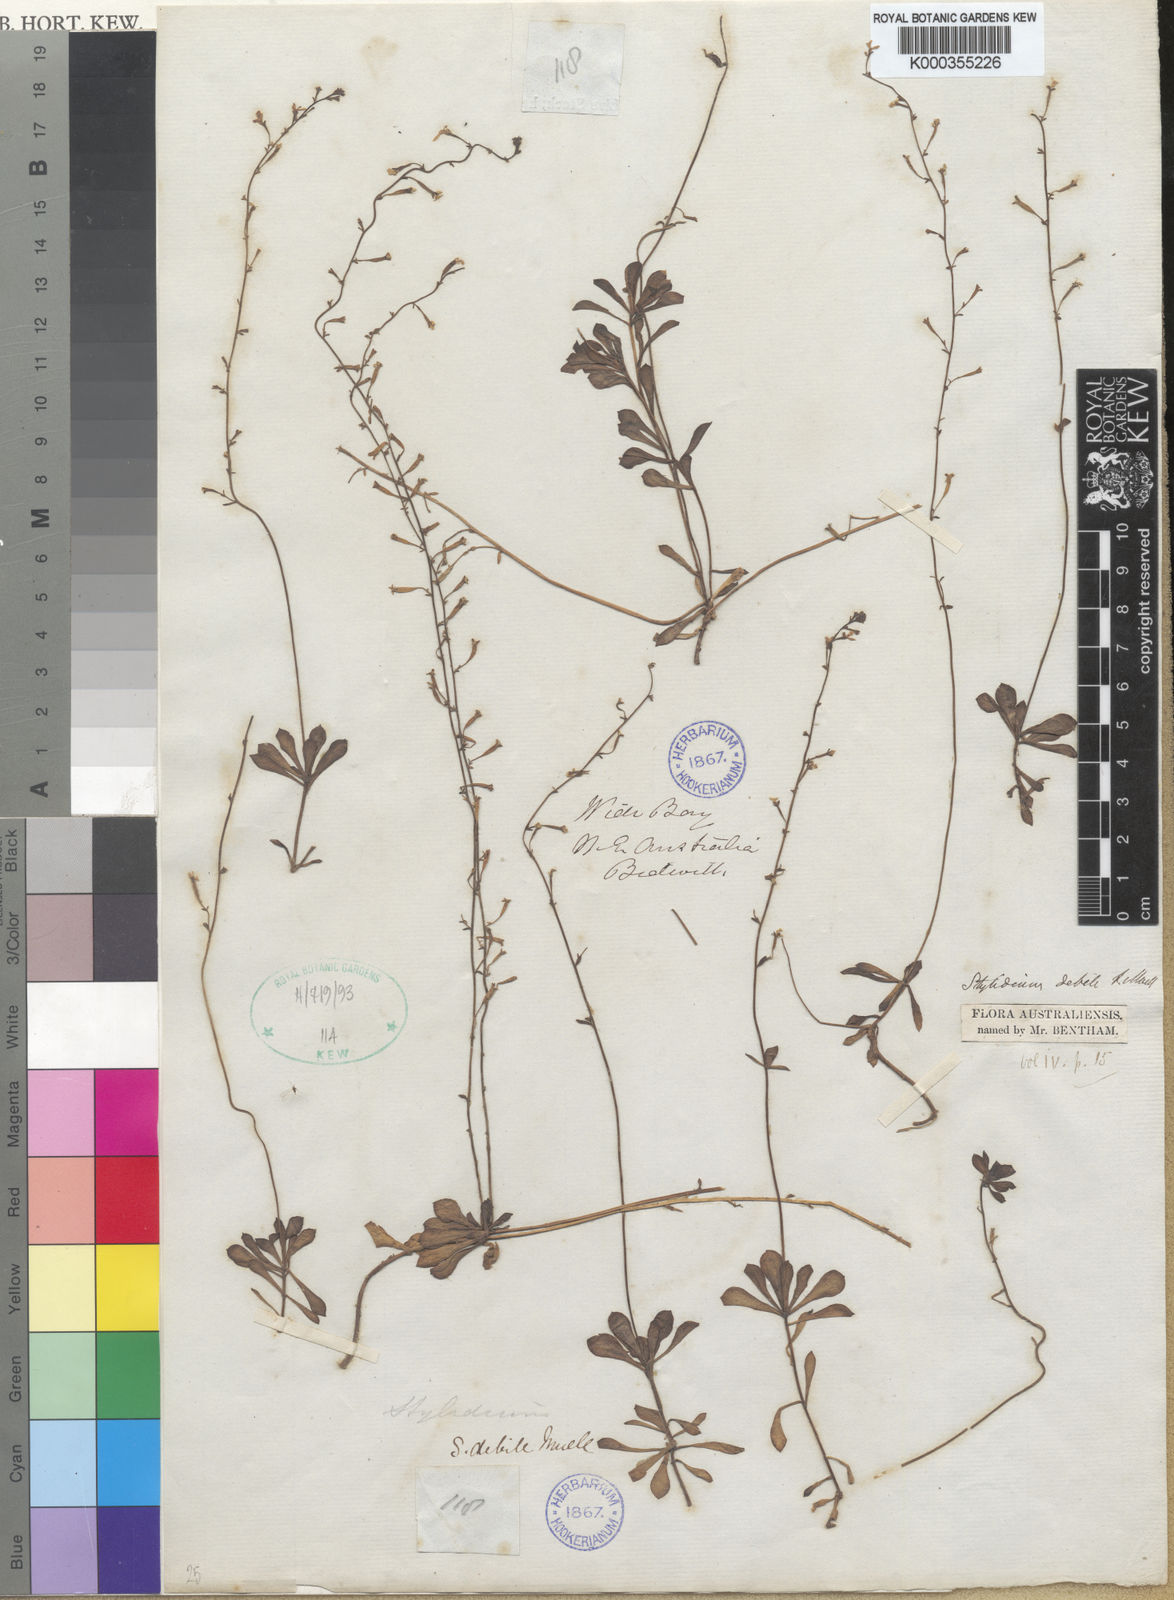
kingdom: Plantae
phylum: Tracheophyta
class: Magnoliopsida
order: Asterales
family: Stylidiaceae
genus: Stylidium
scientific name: Stylidium debile
